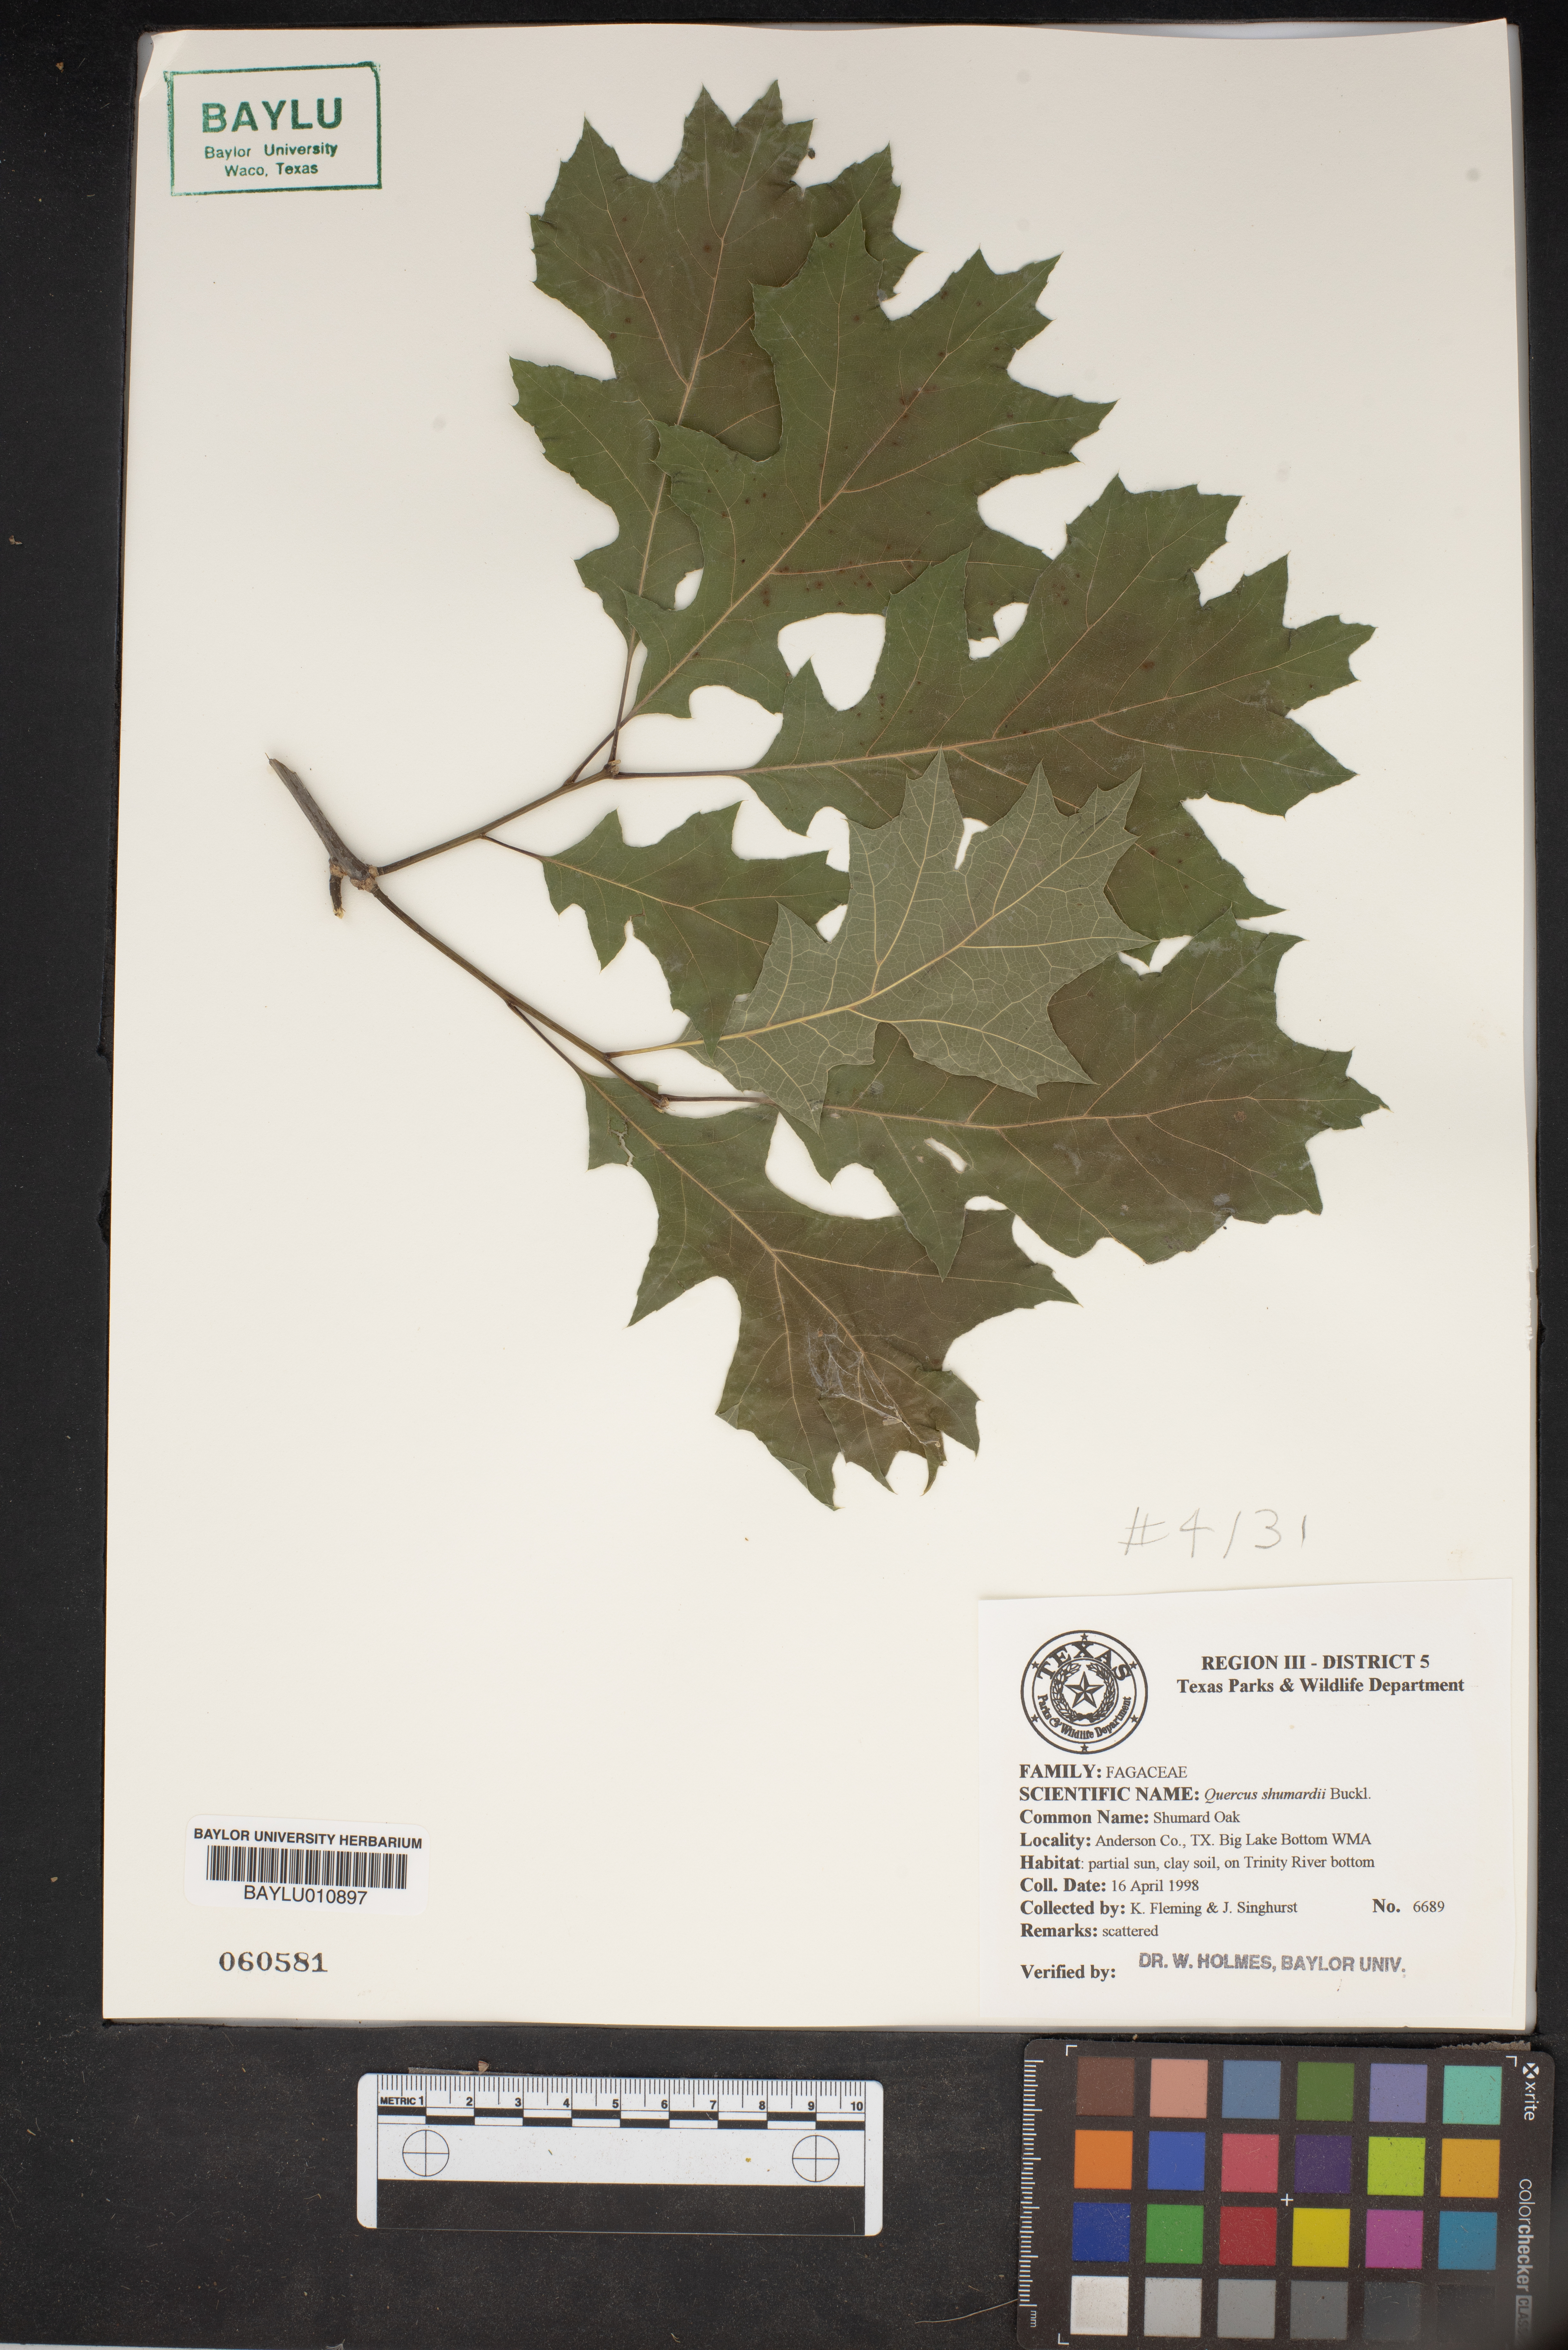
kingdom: Plantae
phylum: Tracheophyta
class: Magnoliopsida
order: Fagales
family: Fagaceae
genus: Quercus
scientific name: Quercus shumardii
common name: Shumard oak
